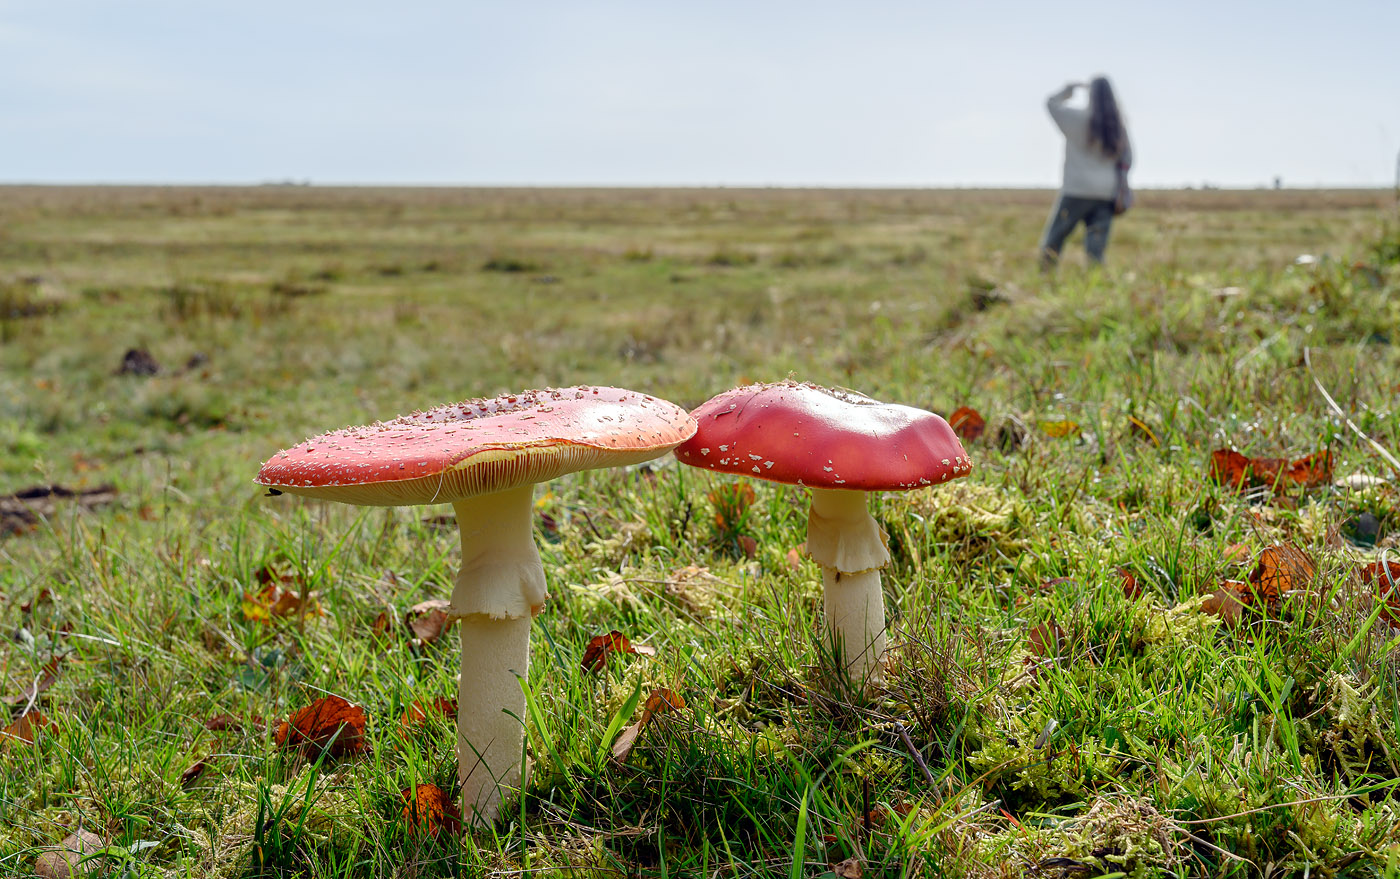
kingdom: Fungi
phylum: Basidiomycota
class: Agaricomycetes
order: Agaricales
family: Amanitaceae
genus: Amanita
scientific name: Amanita muscaria
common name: rød fluesvamp
